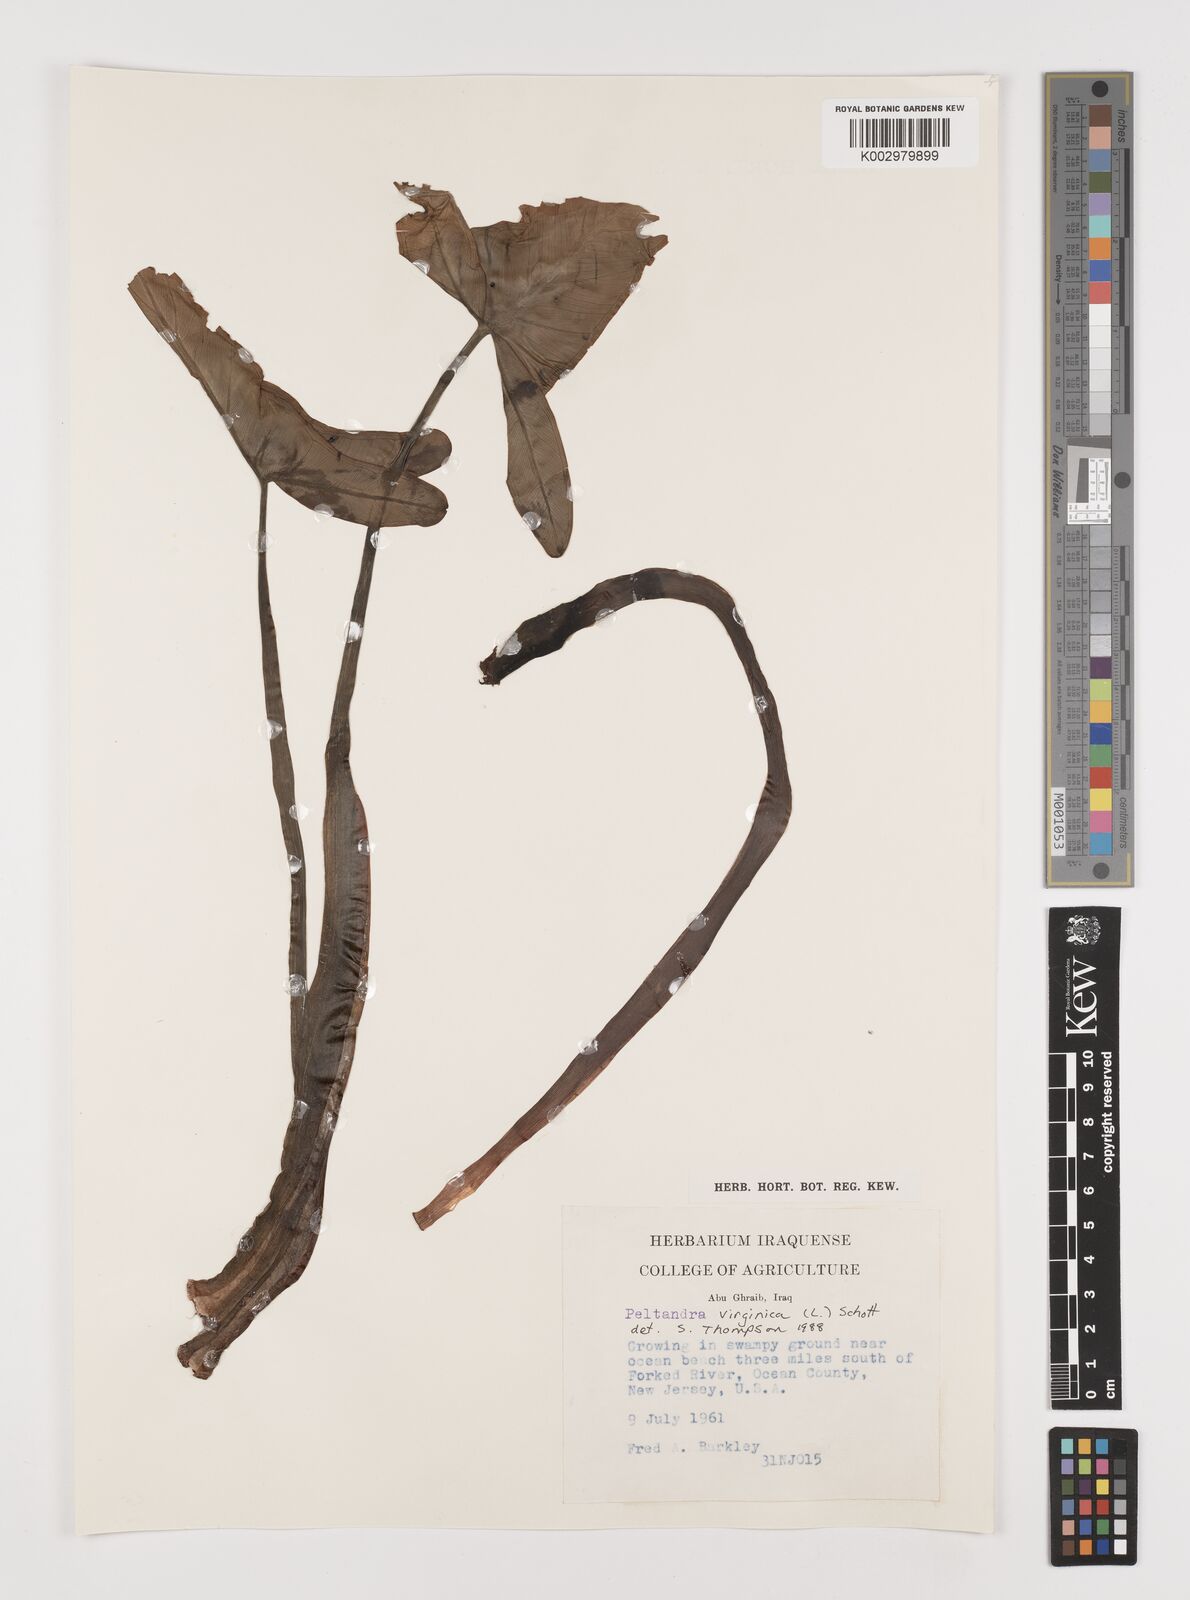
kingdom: Plantae
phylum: Tracheophyta
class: Liliopsida
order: Alismatales
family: Araceae
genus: Peltandra
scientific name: Peltandra virginica
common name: Arrow arum
